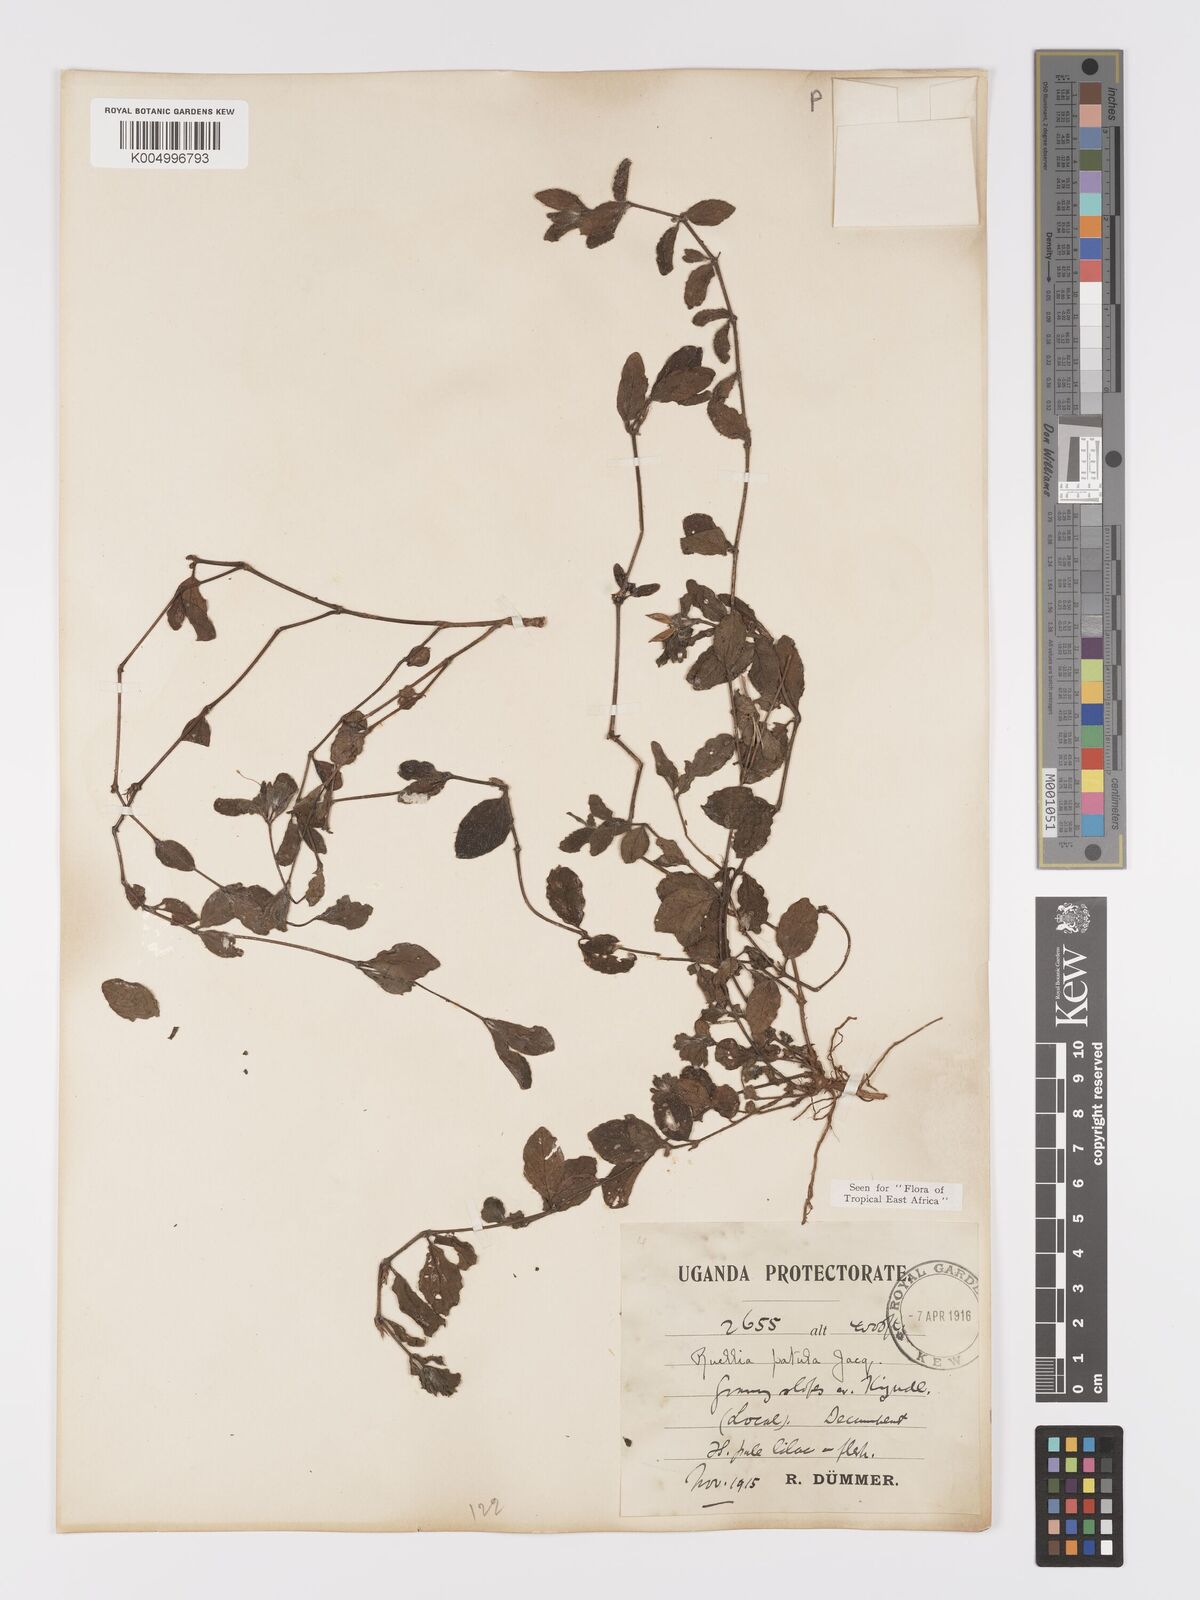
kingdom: Plantae
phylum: Tracheophyta
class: Magnoliopsida
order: Lamiales
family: Acanthaceae
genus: Ruellia
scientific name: Ruellia patula
